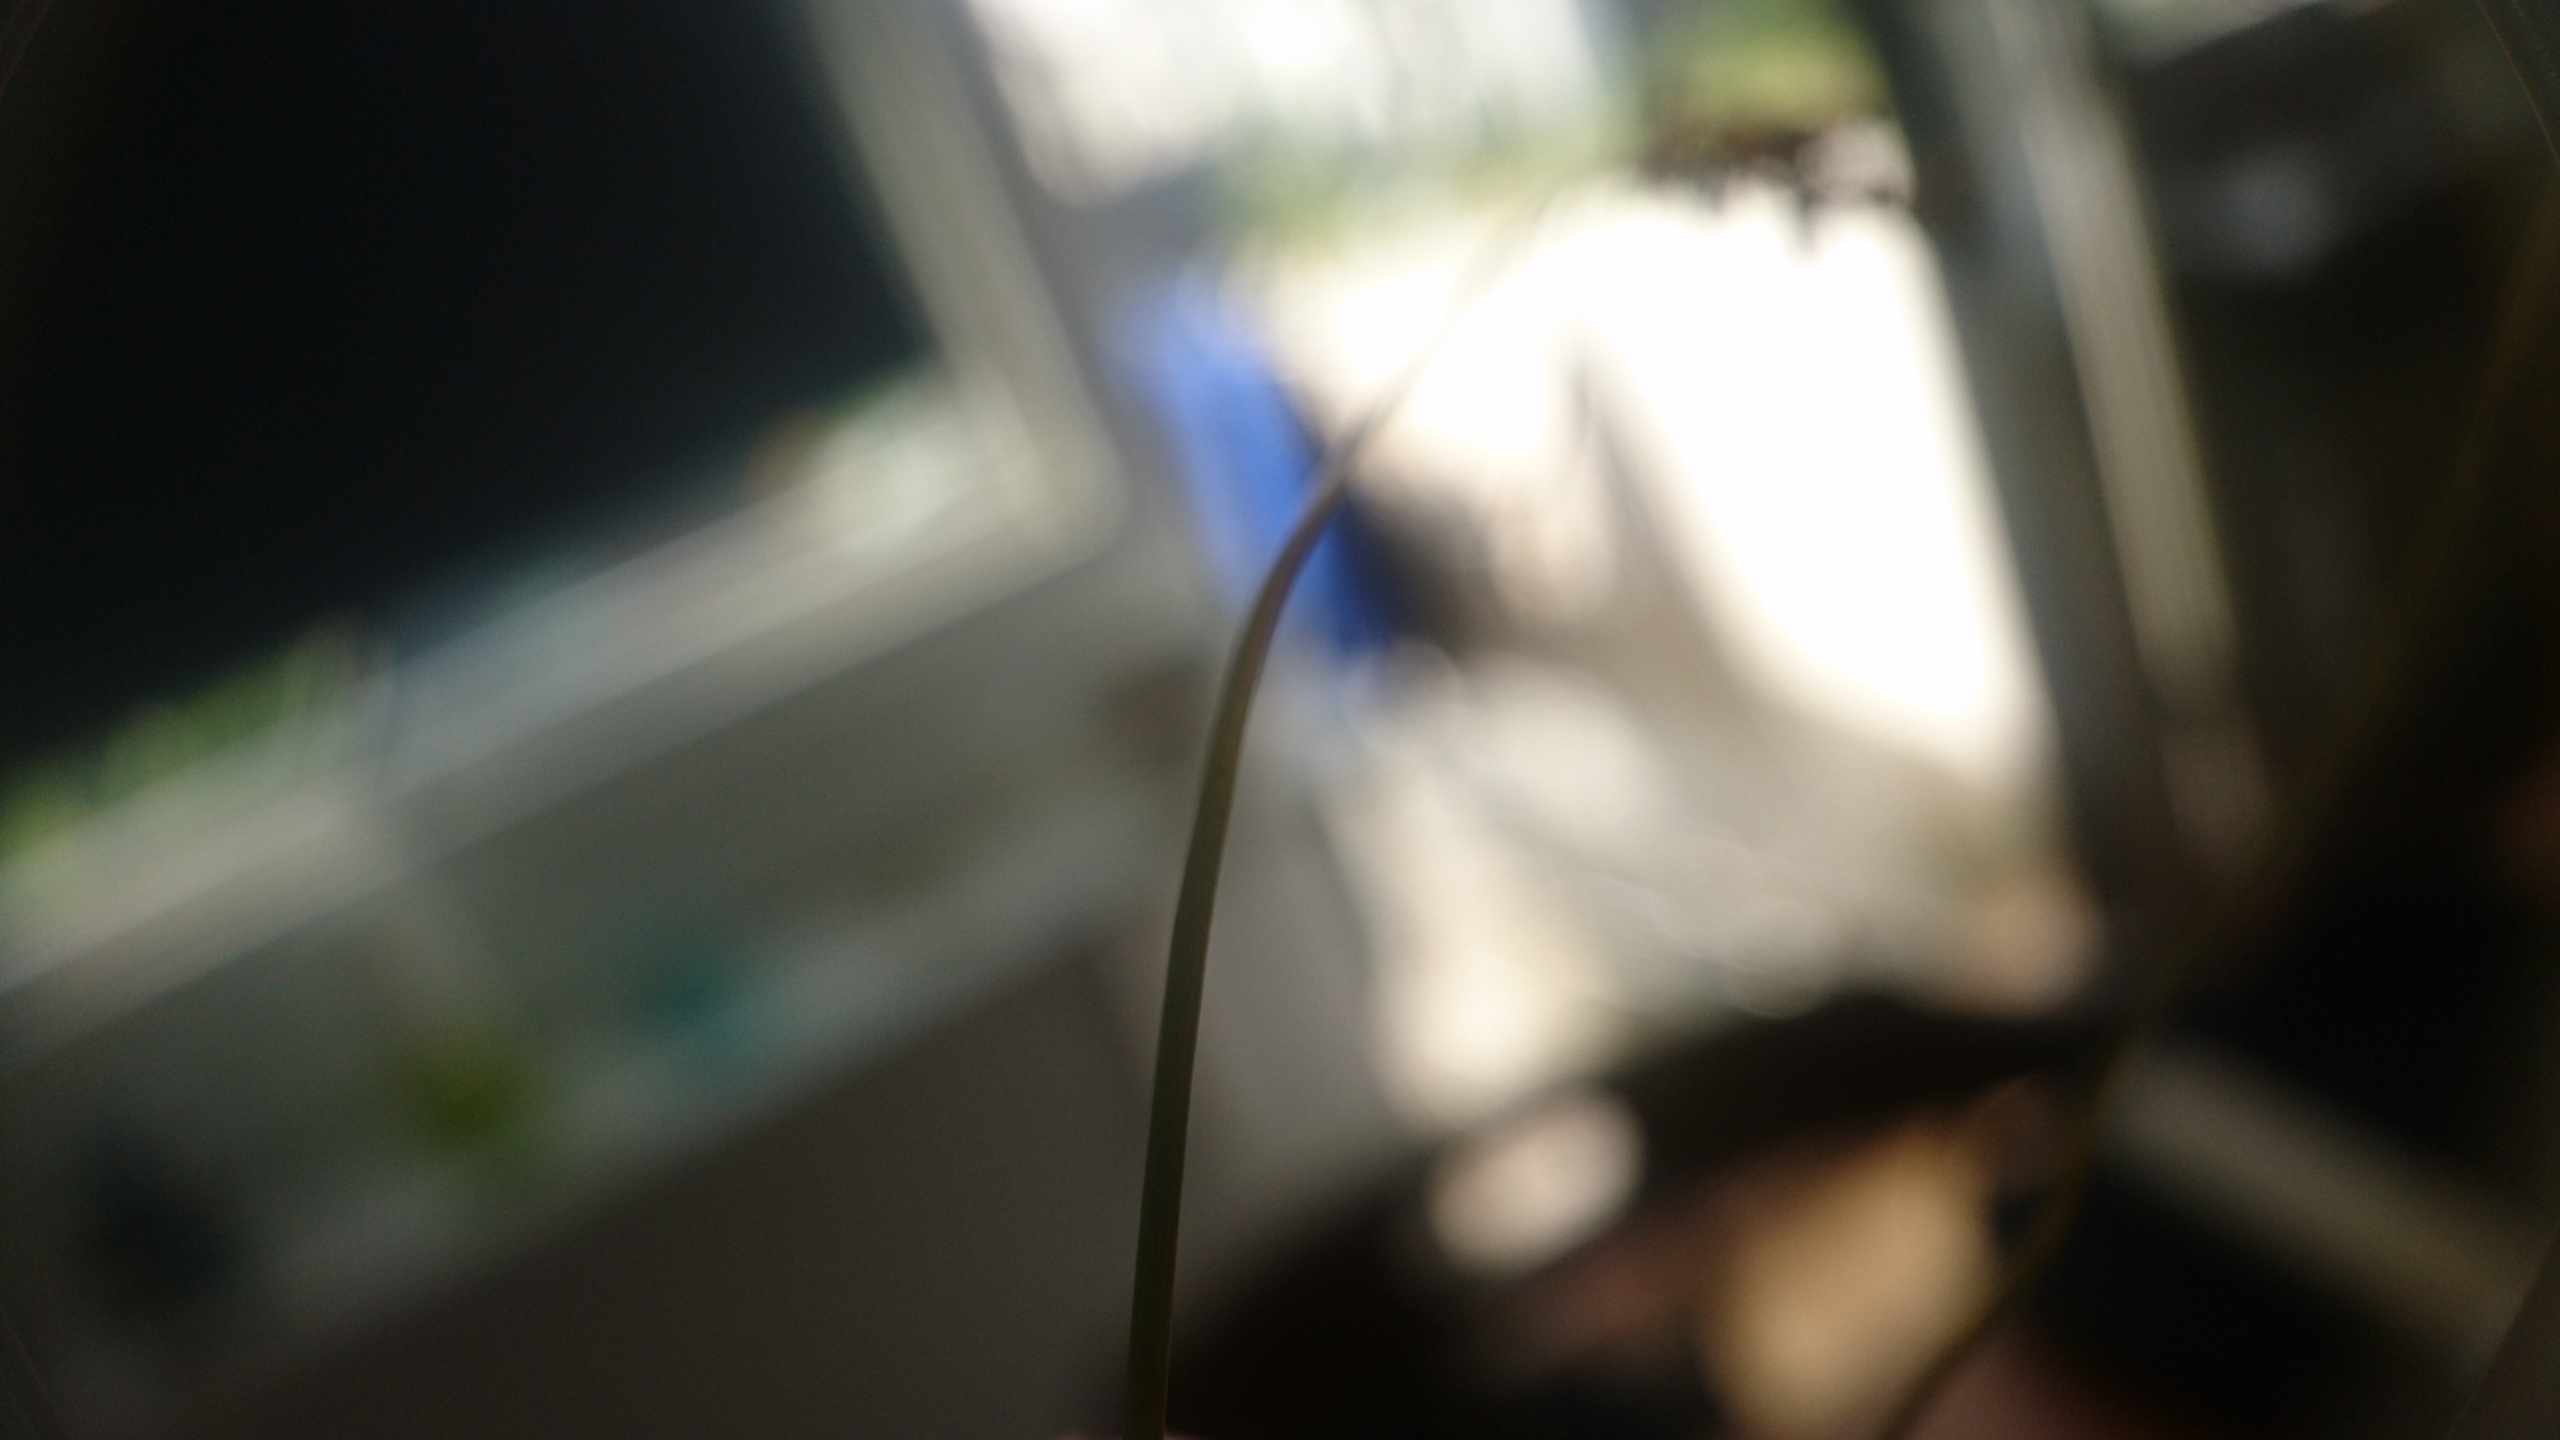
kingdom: Plantae
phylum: Tracheophyta
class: Liliopsida
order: Poales
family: Juncaceae
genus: Juncus
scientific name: Juncus compressus
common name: Fladstrået siv
